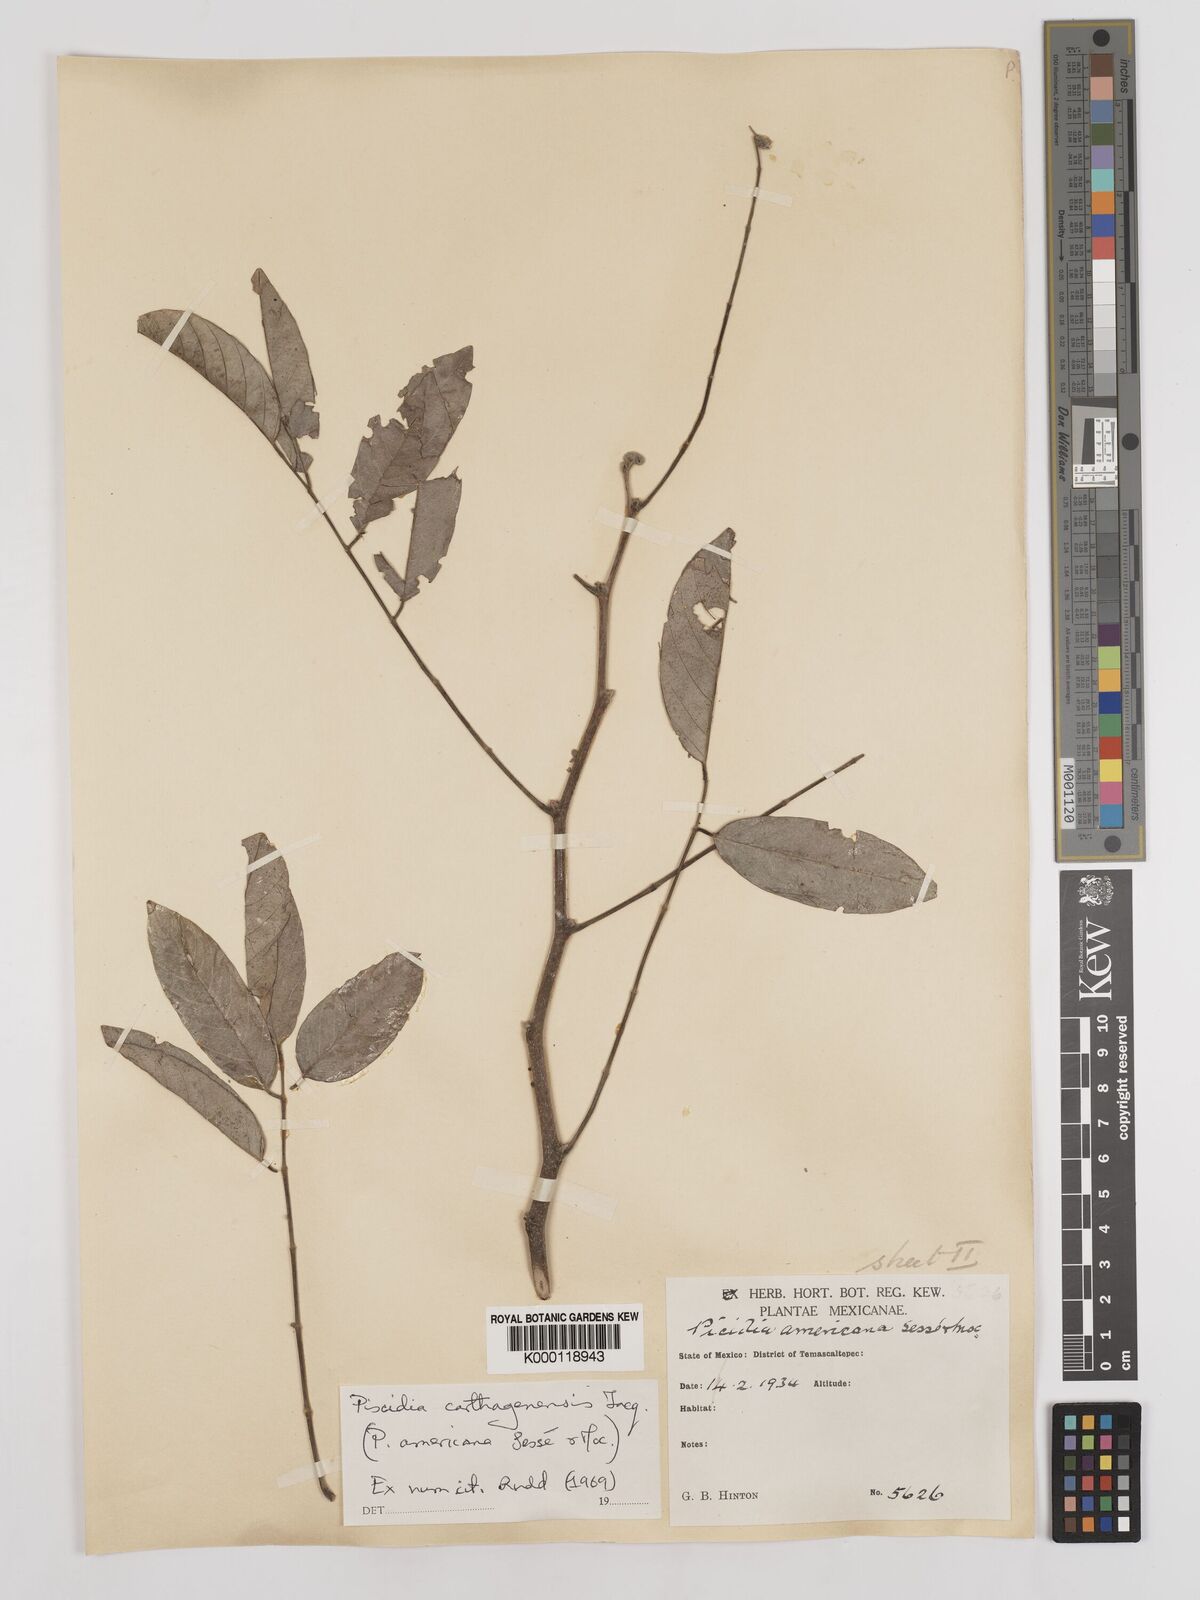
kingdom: Plantae
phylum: Tracheophyta
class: Magnoliopsida
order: Fabales
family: Fabaceae
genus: Piscidia
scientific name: Piscidia carthagenensis
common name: Stinkwood
